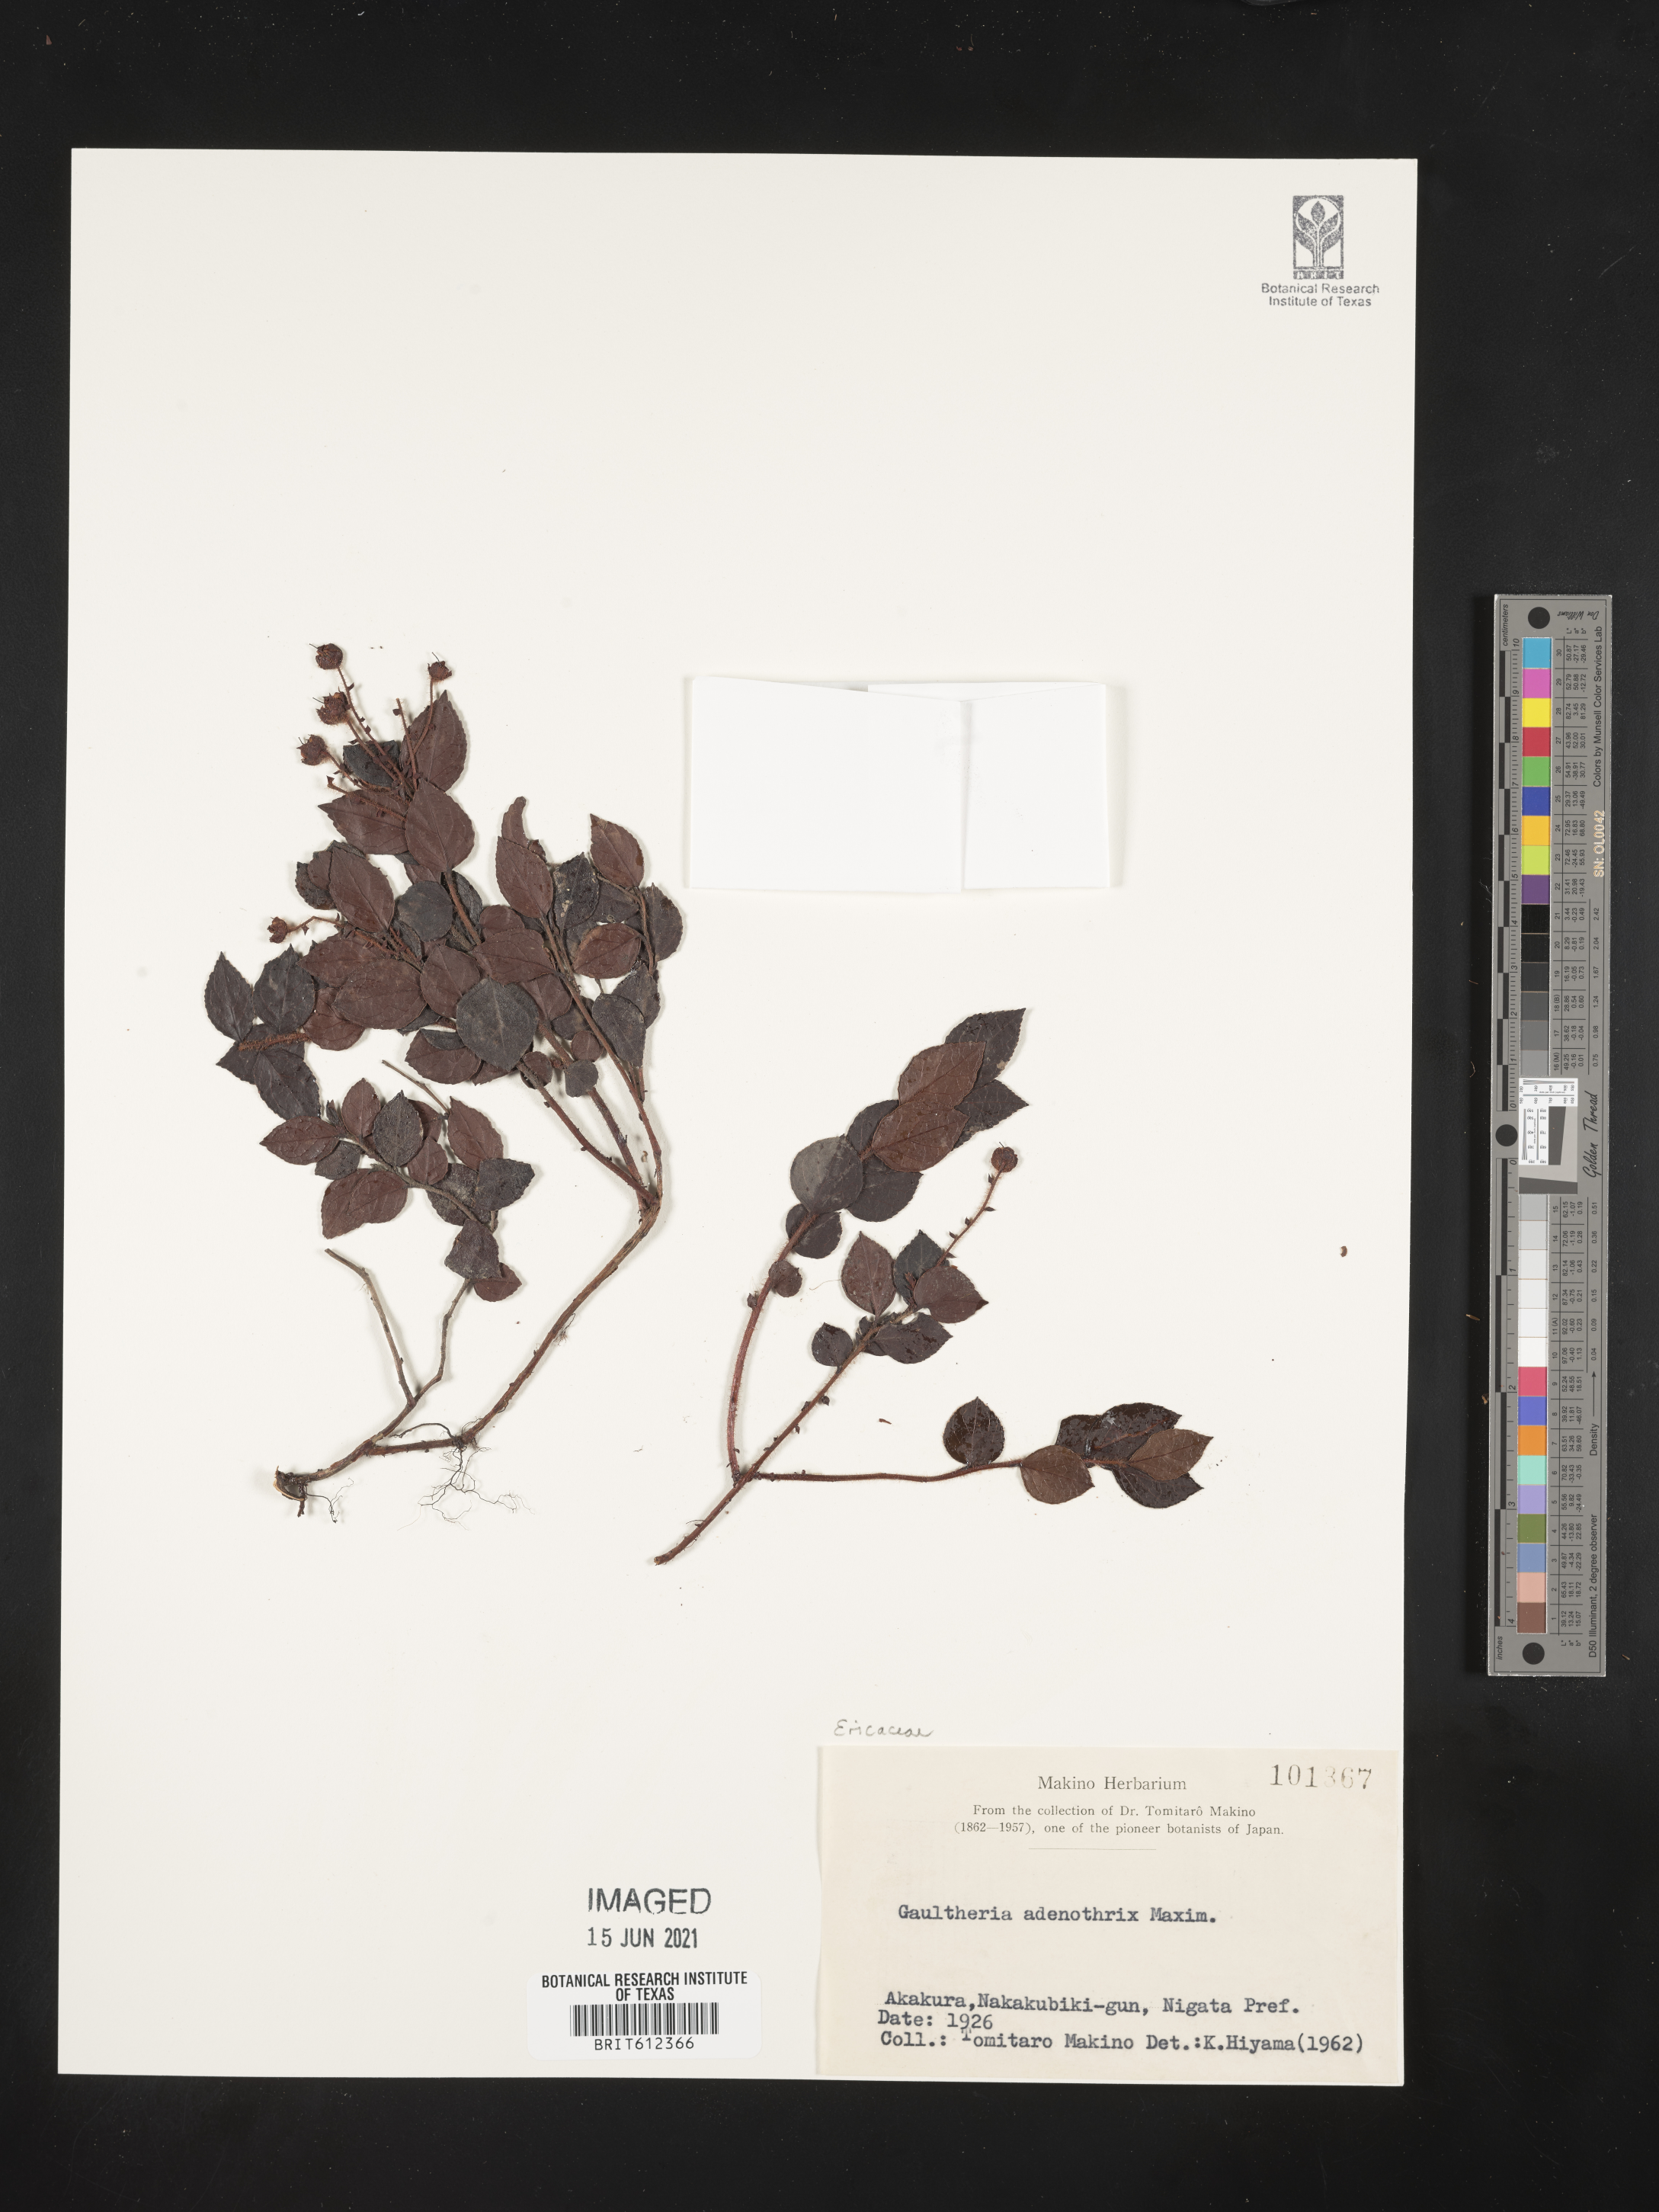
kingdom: Plantae
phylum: Tracheophyta
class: Magnoliopsida
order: Ericales
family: Ericaceae
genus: Gaultheria
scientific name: Gaultheria adenothrix
